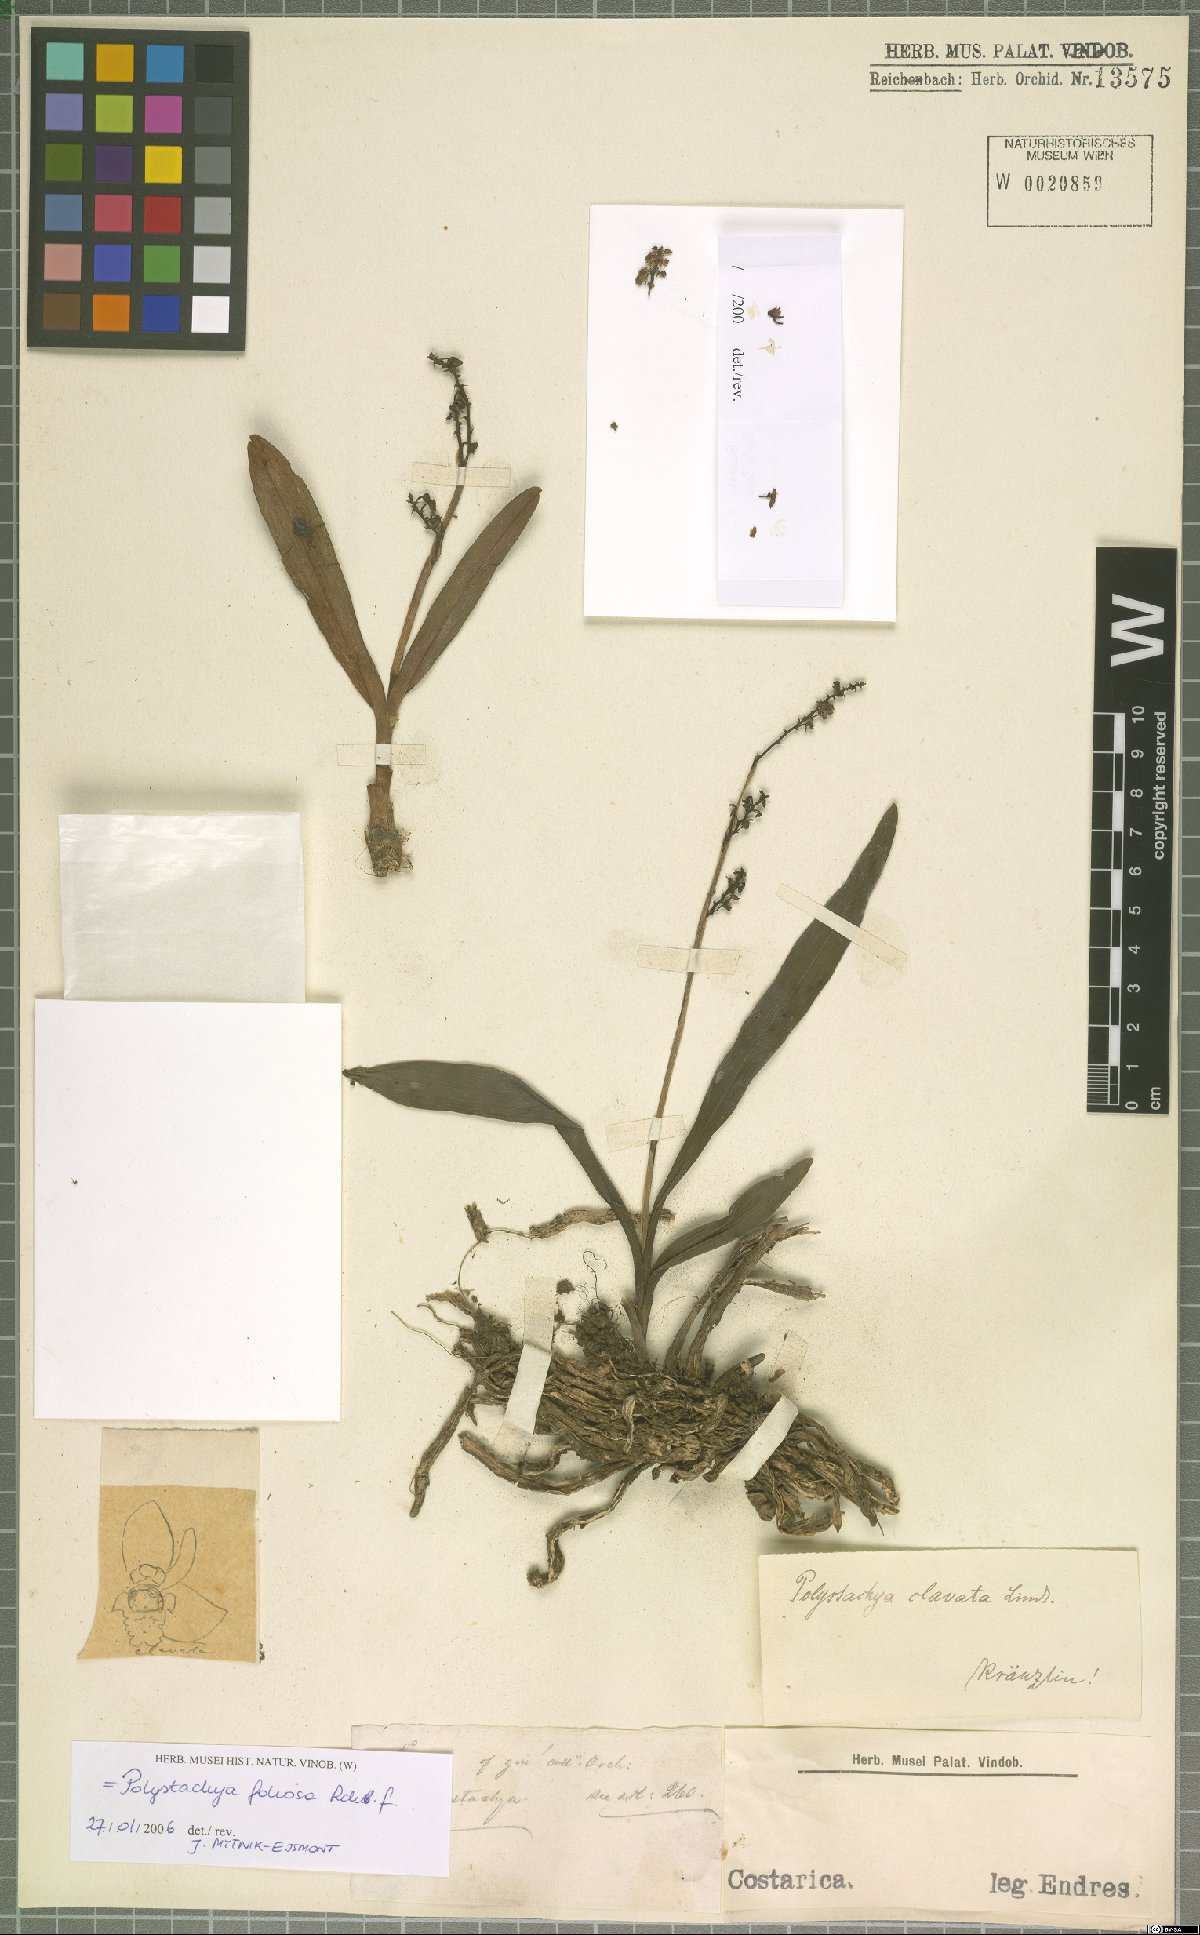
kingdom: Plantae
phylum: Tracheophyta
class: Liliopsida
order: Asparagales
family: Orchidaceae
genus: Polystachya
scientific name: Polystachya foliosa
